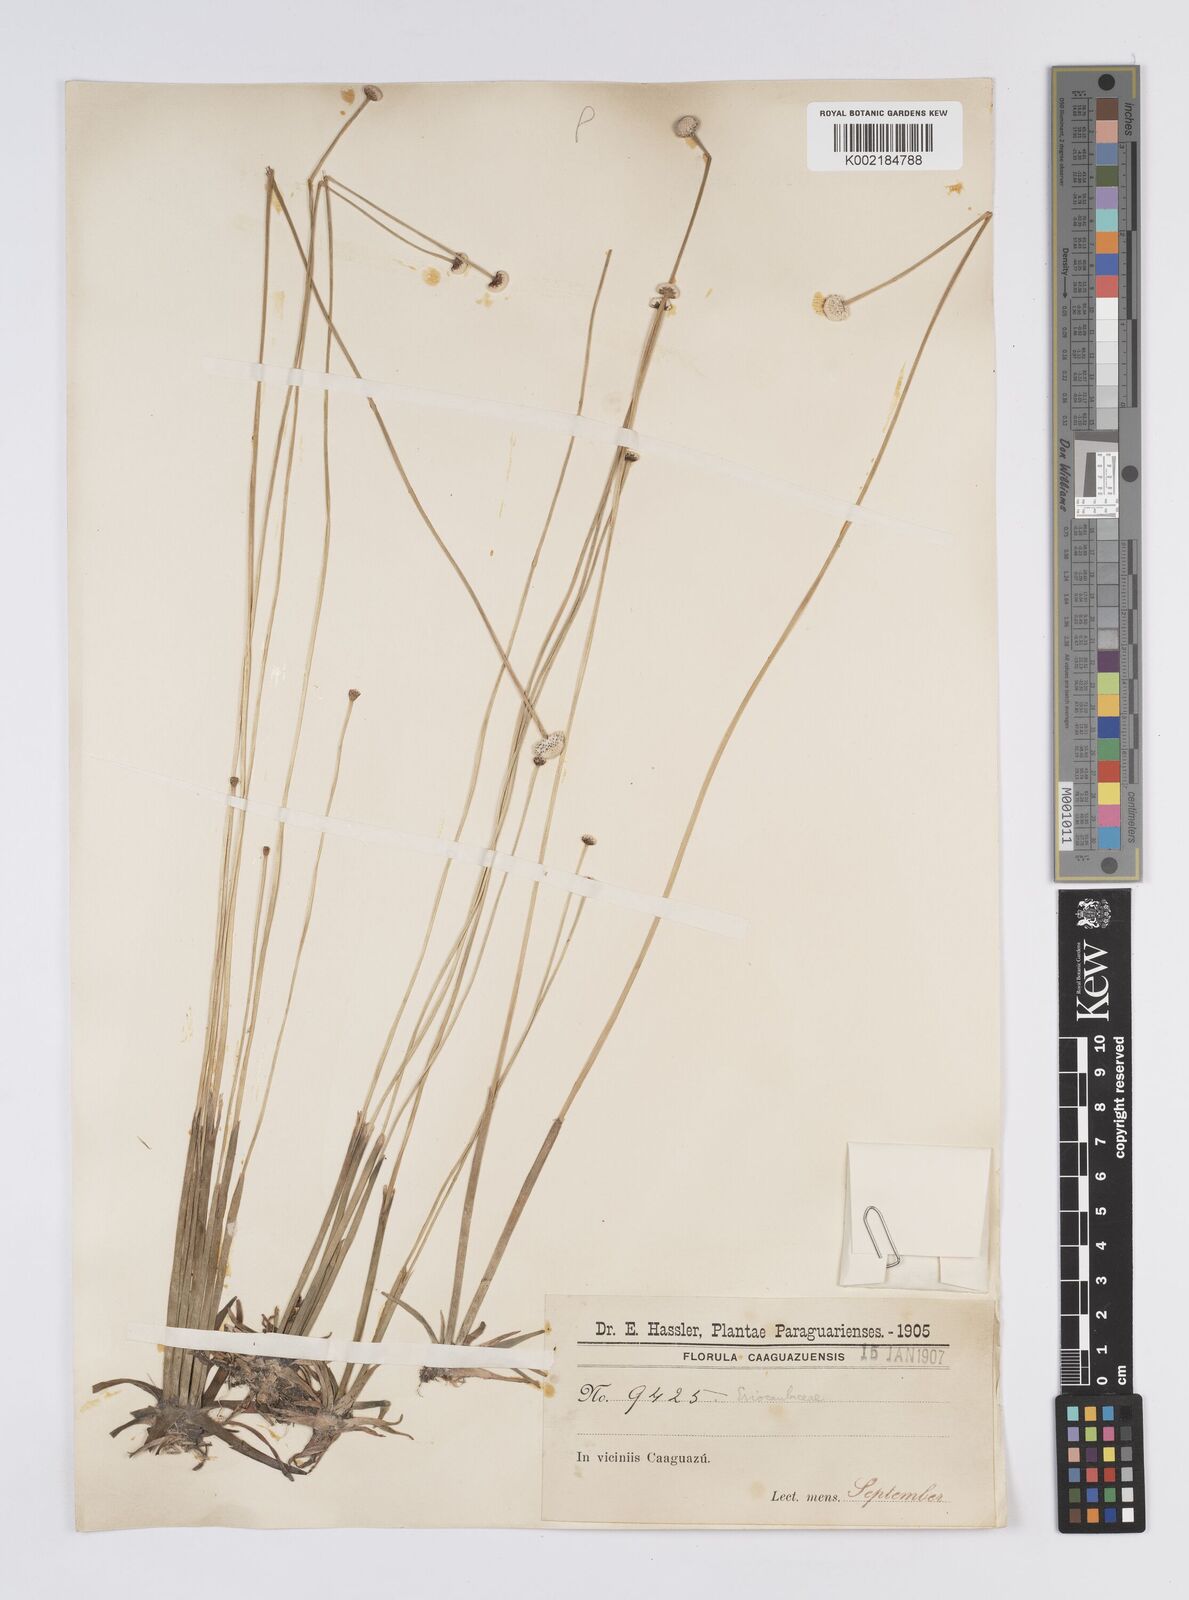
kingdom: Plantae
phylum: Tracheophyta
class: Liliopsida
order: Poales
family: Eriocaulaceae
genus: Eriocaulon
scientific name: Eriocaulon sellowianum
